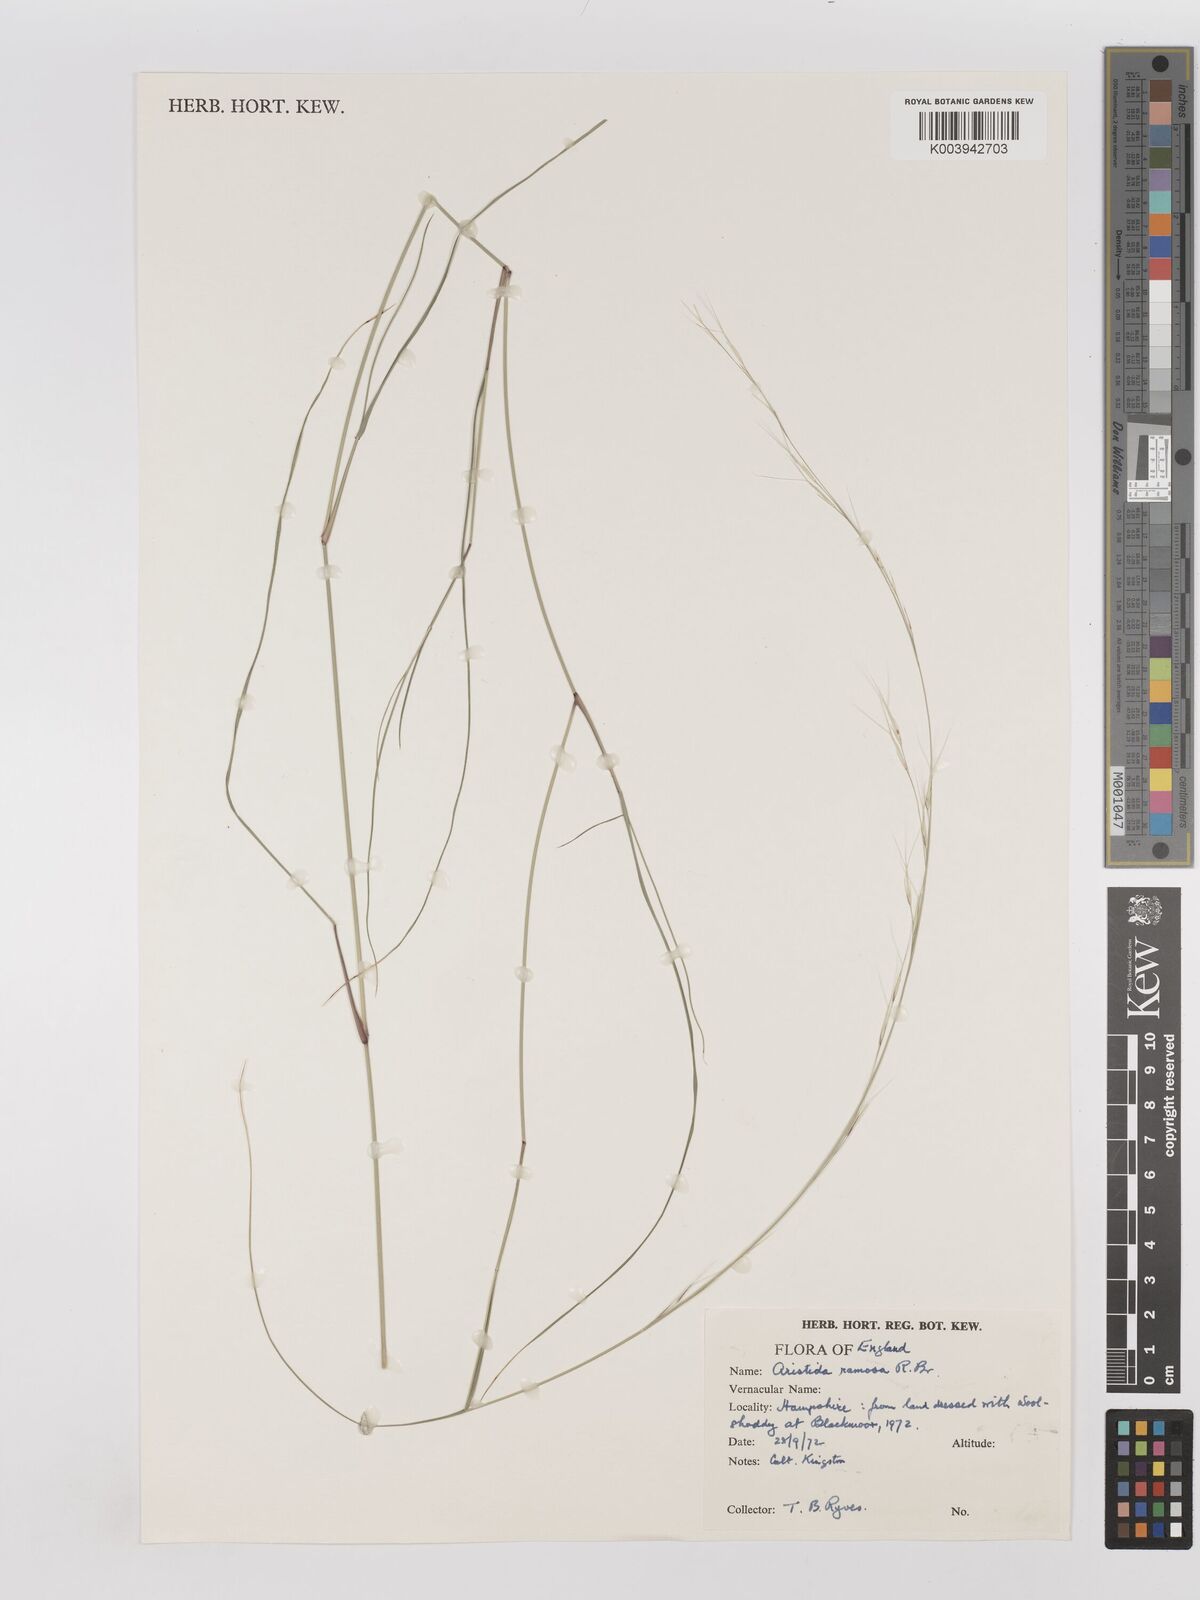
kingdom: Plantae
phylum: Tracheophyta
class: Liliopsida
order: Poales
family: Poaceae
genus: Aristida
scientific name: Aristida ramosa
